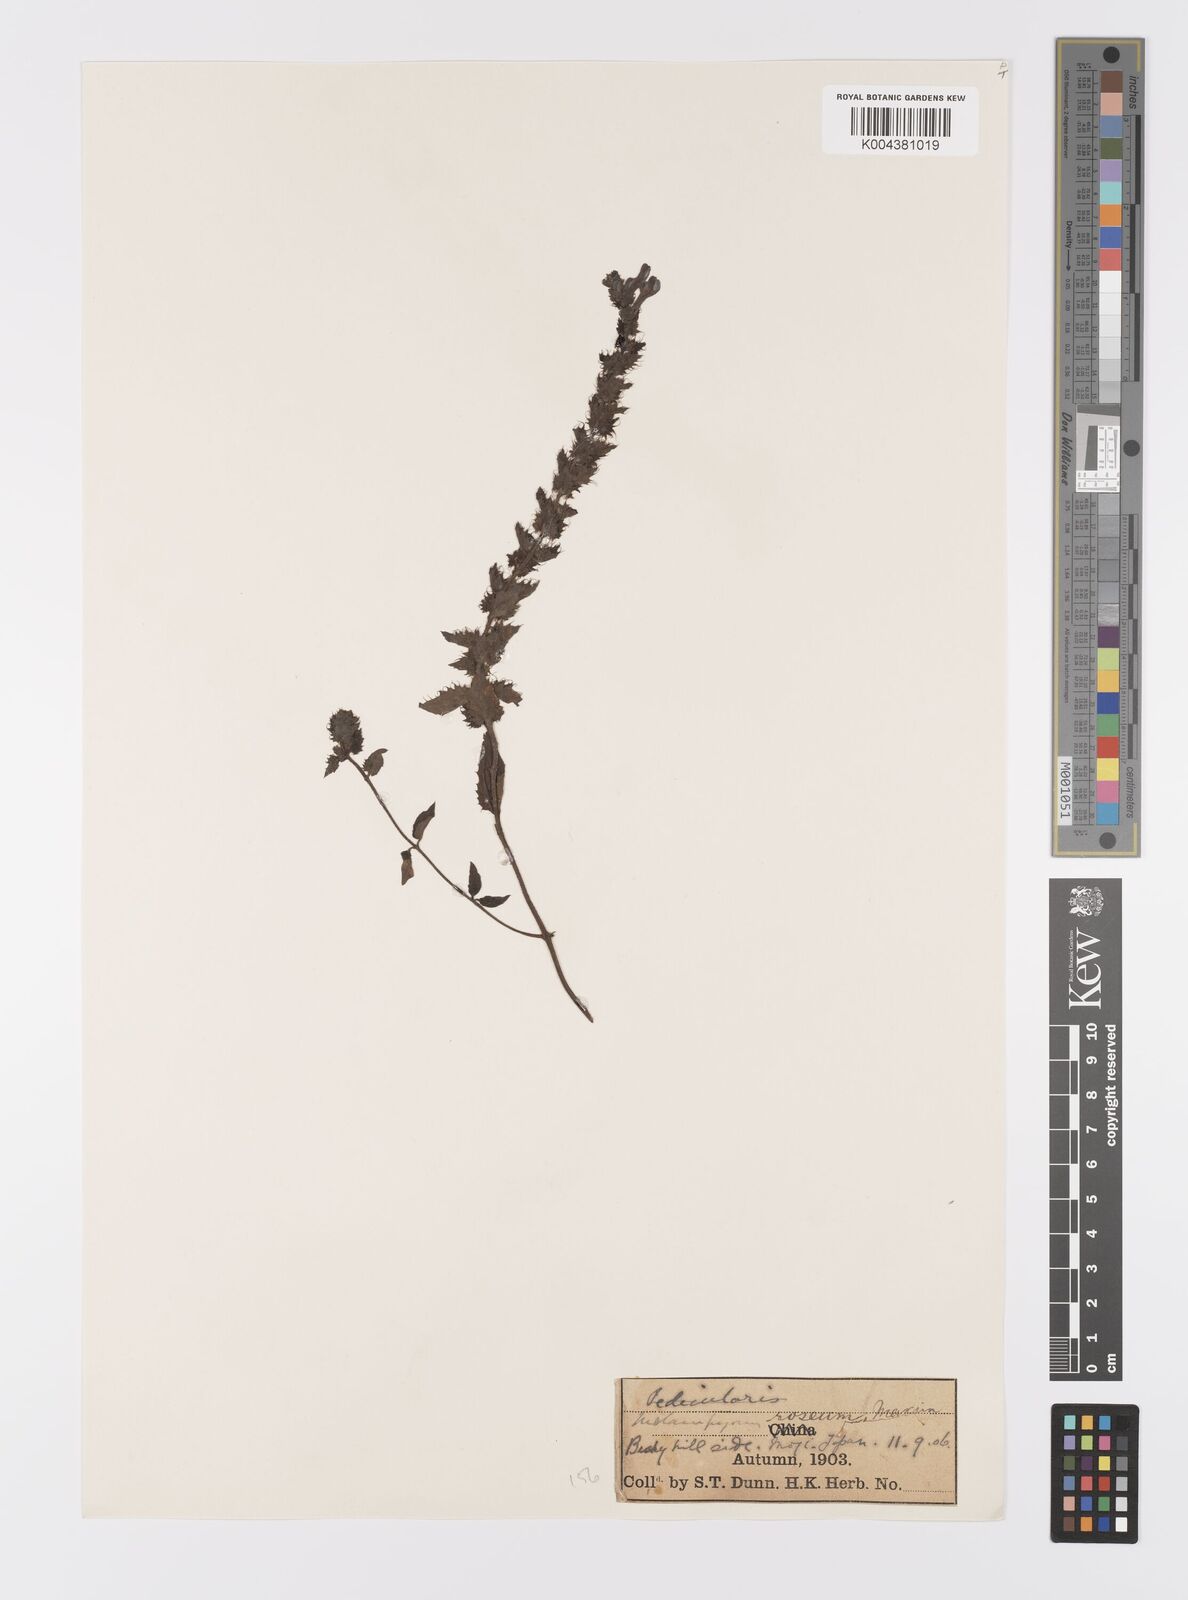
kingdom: Plantae
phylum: Tracheophyta
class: Magnoliopsida
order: Lamiales
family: Orobanchaceae
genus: Melampyrum
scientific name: Melampyrum roseum
